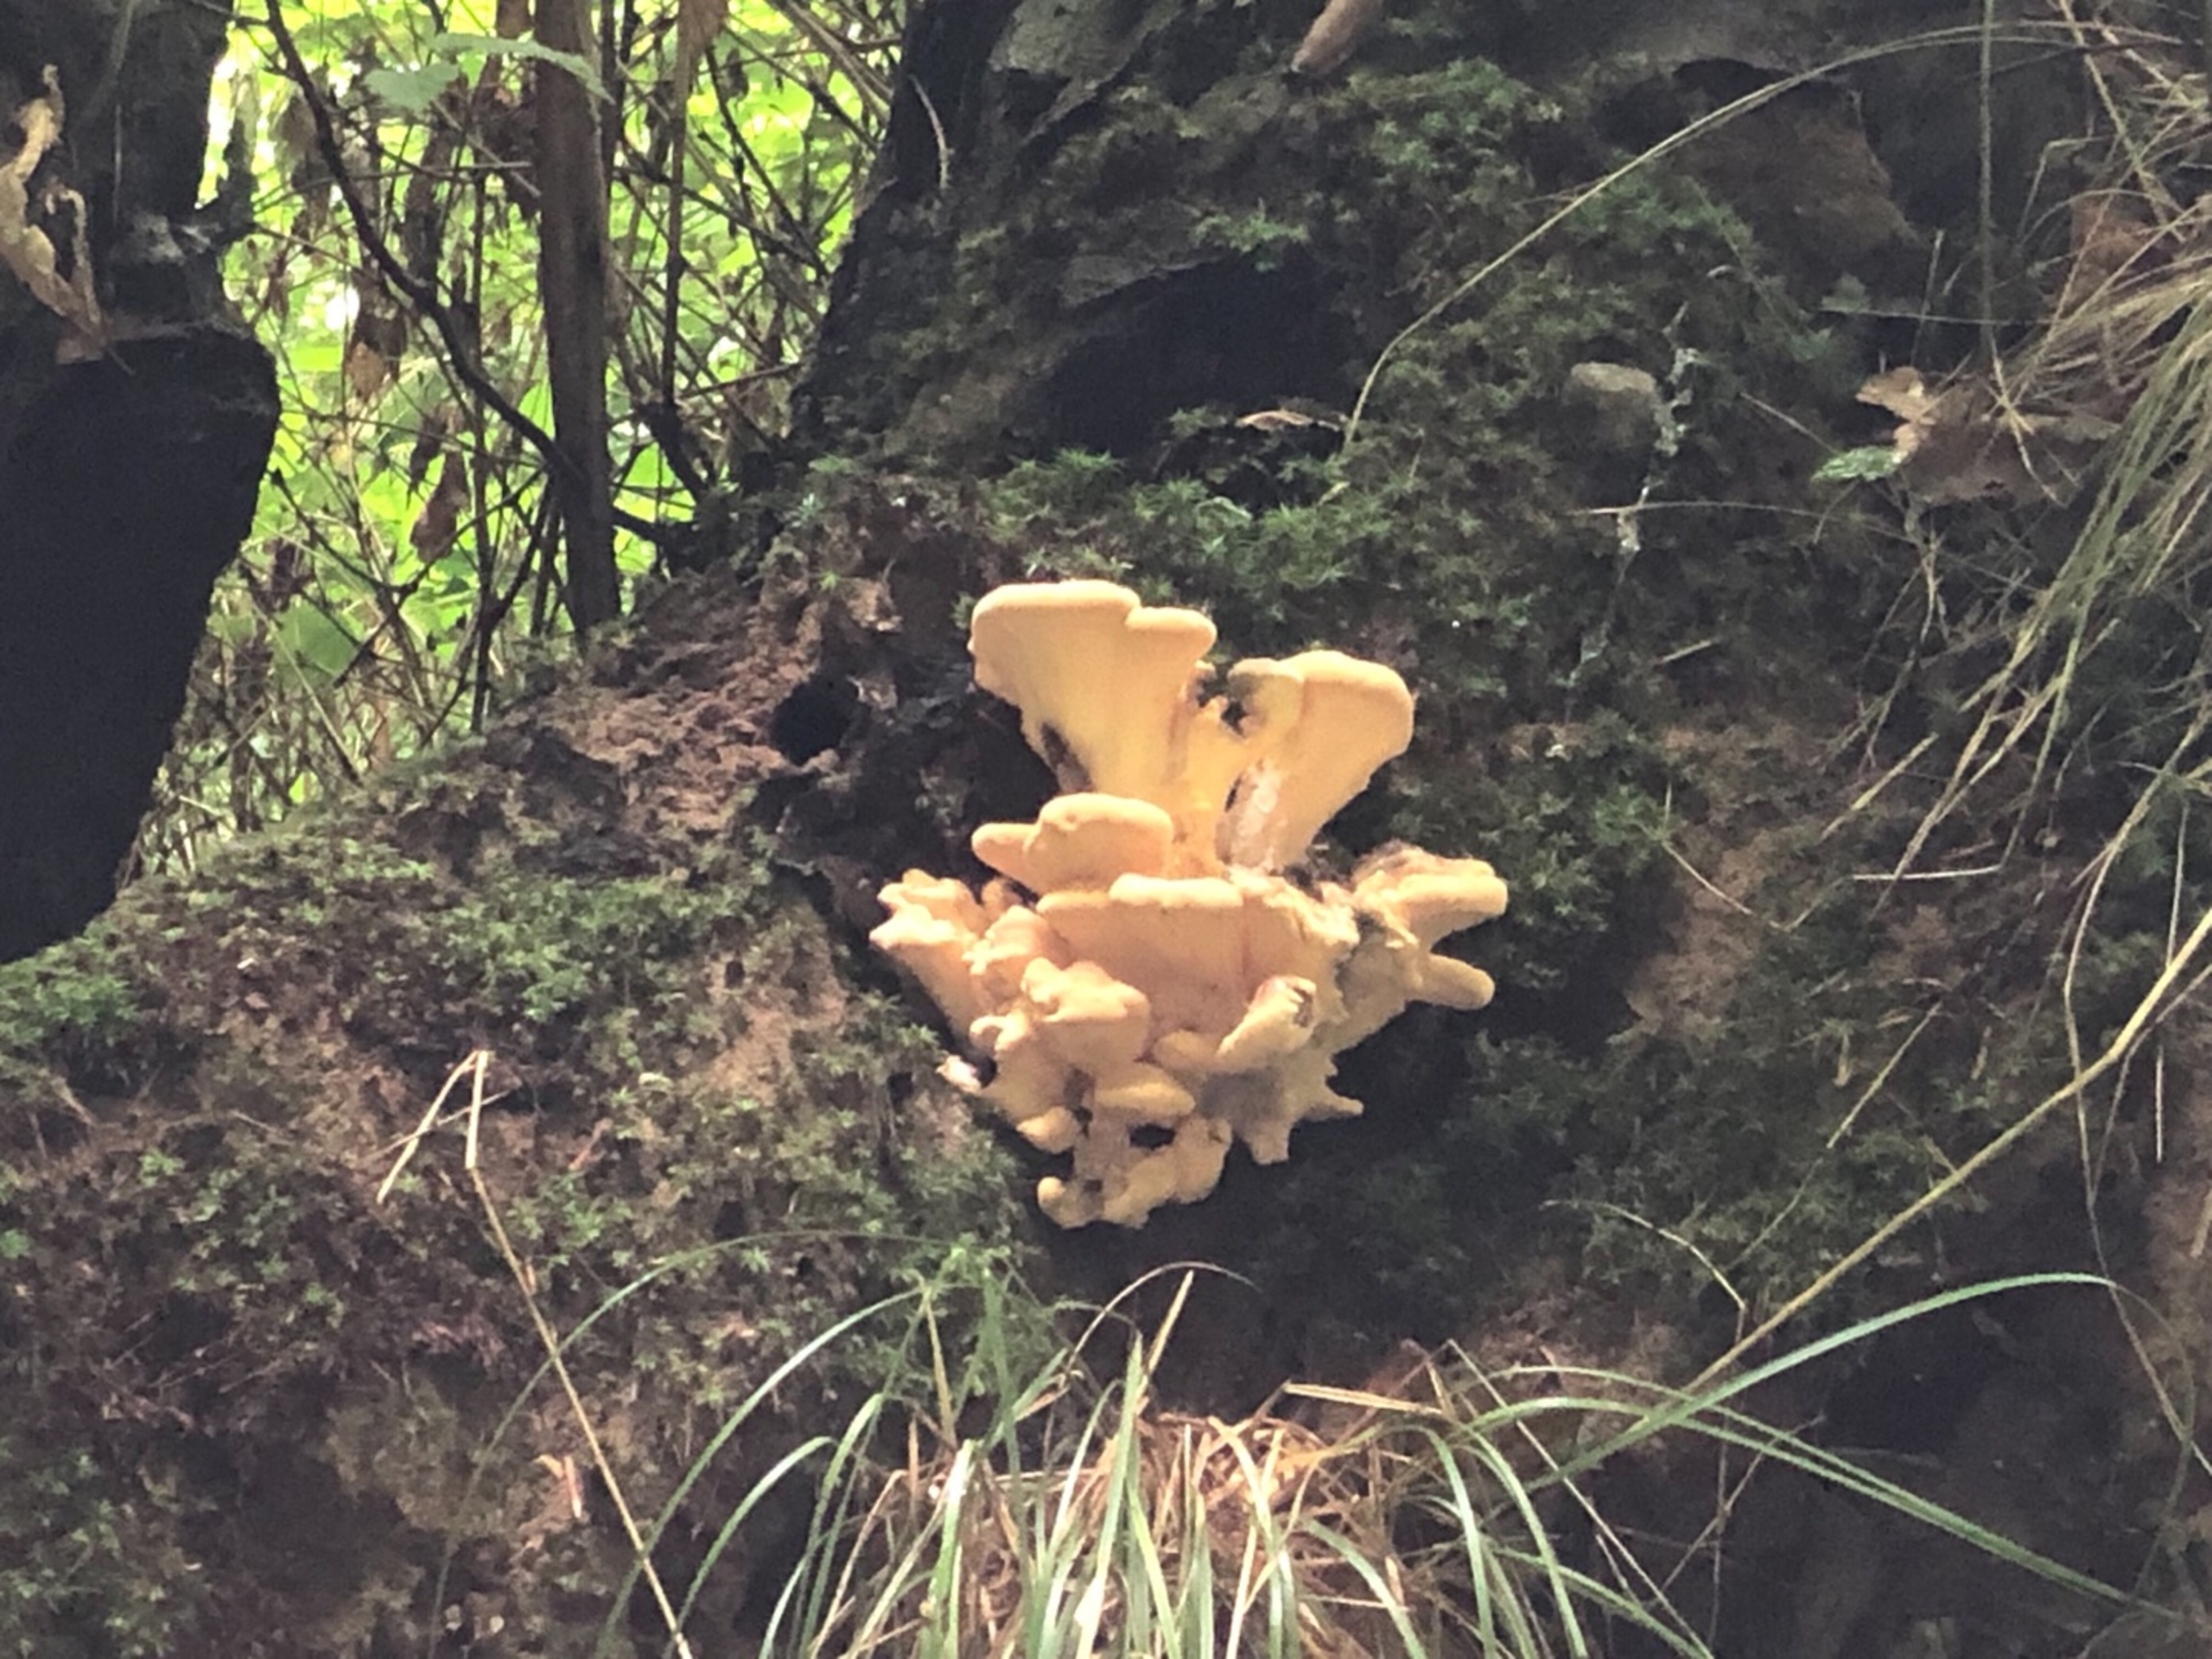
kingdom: Fungi
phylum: Basidiomycota
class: Agaricomycetes
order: Polyporales
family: Meripilaceae
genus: Meripilus
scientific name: Meripilus giganteus
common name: Kæmpeporesvamp
